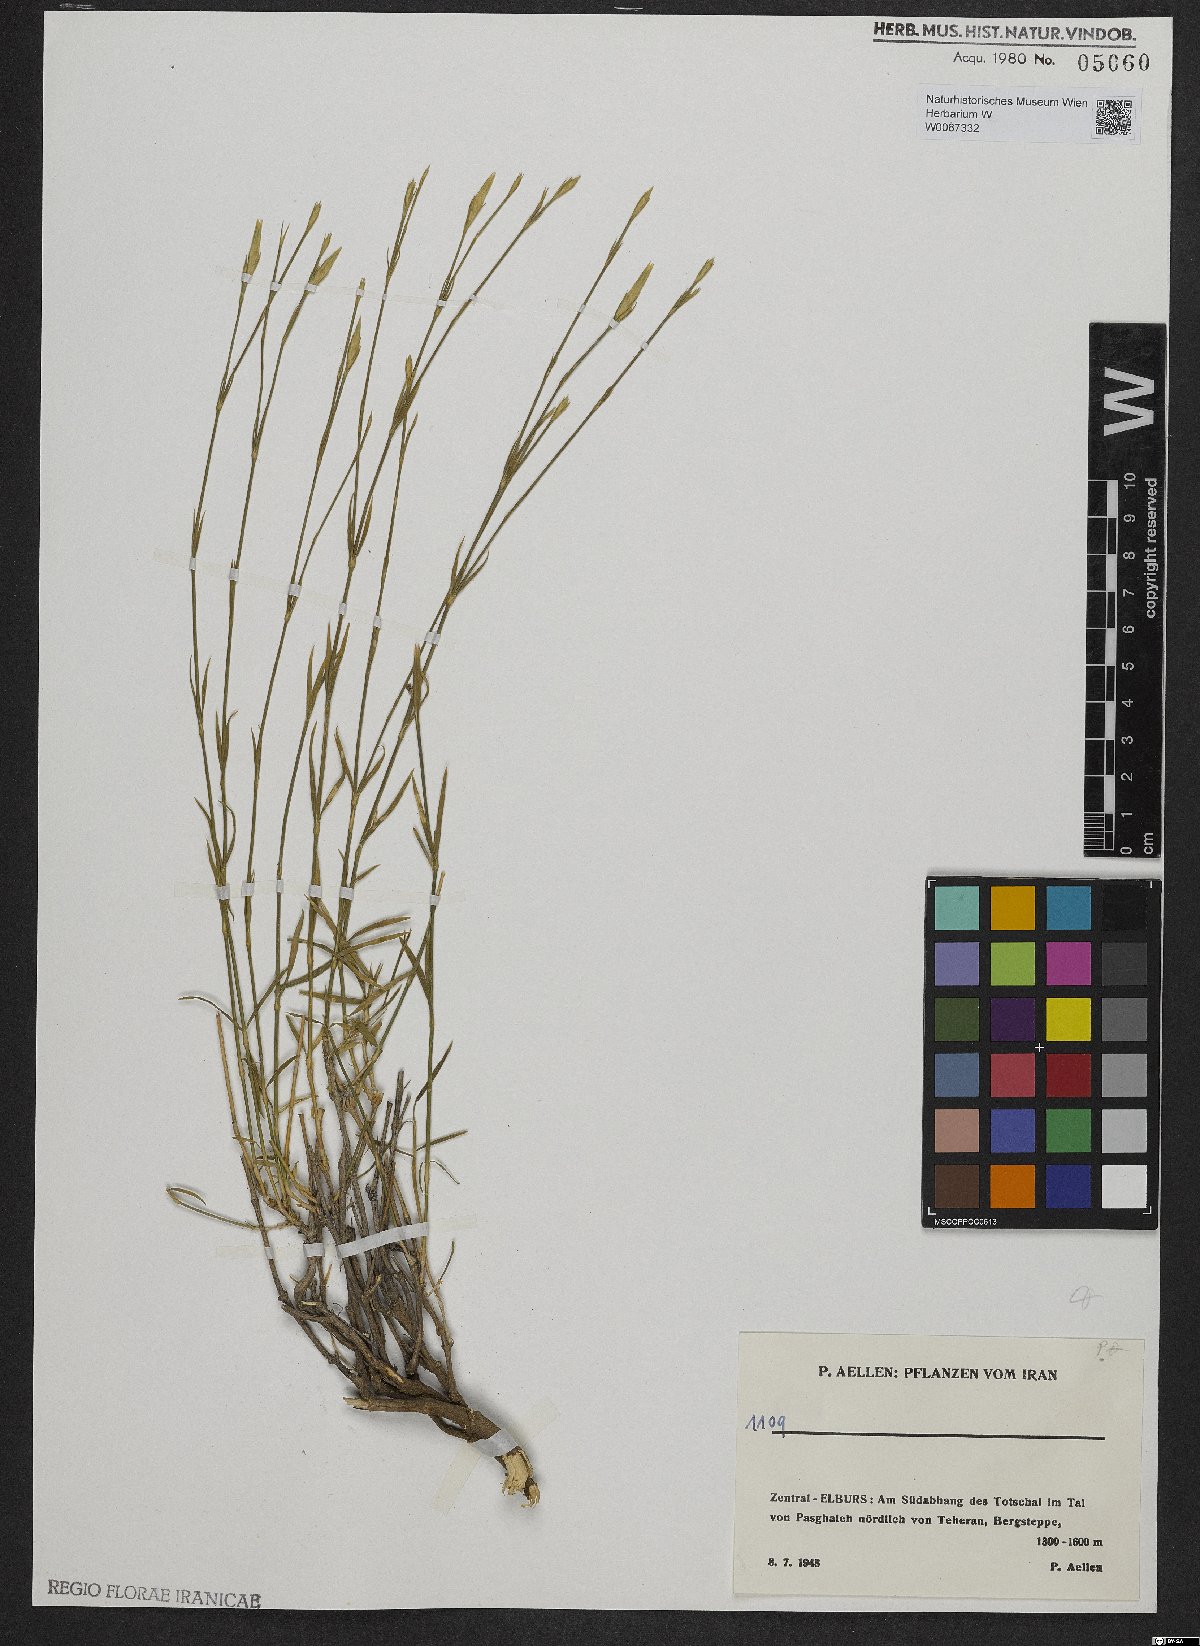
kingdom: Plantae
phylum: Tracheophyta
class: Magnoliopsida
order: Caryophyllales
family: Caryophyllaceae
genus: Dianthus
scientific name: Dianthus
